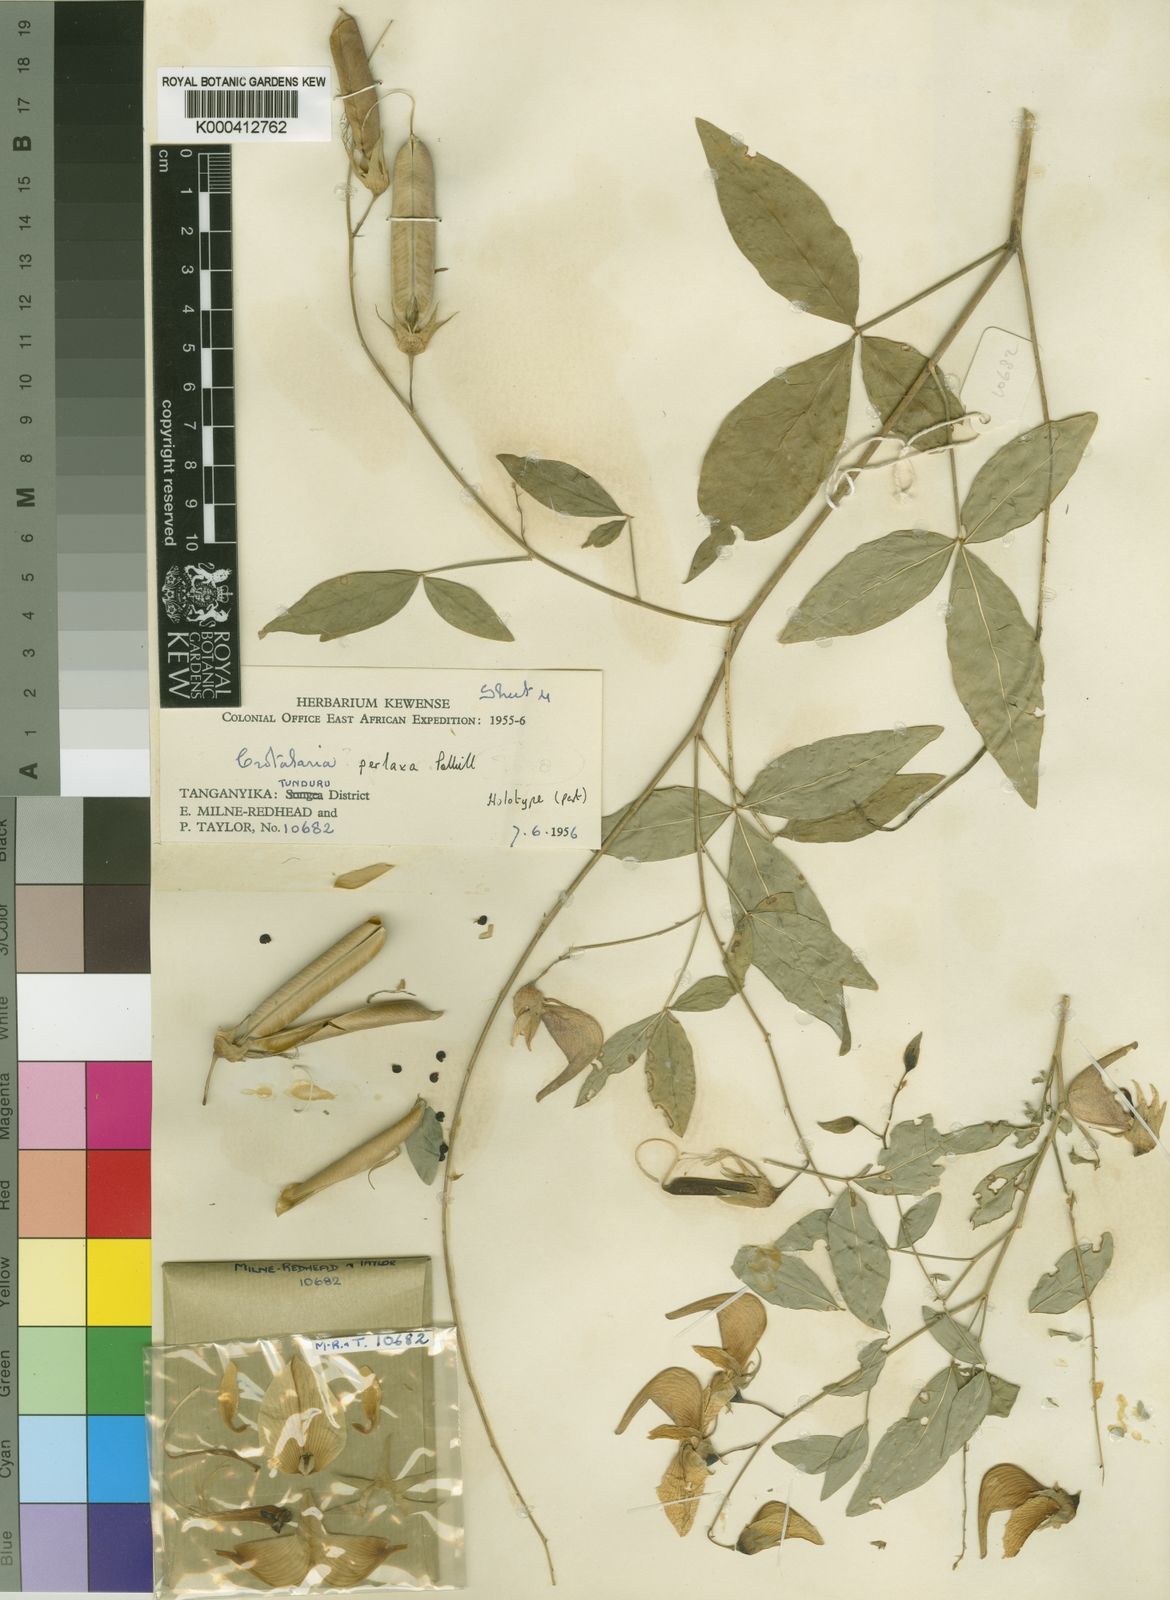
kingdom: Plantae
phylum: Tracheophyta
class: Magnoliopsida
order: Fabales
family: Fabaceae
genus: Crotalaria
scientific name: Crotalaria perlaxa
